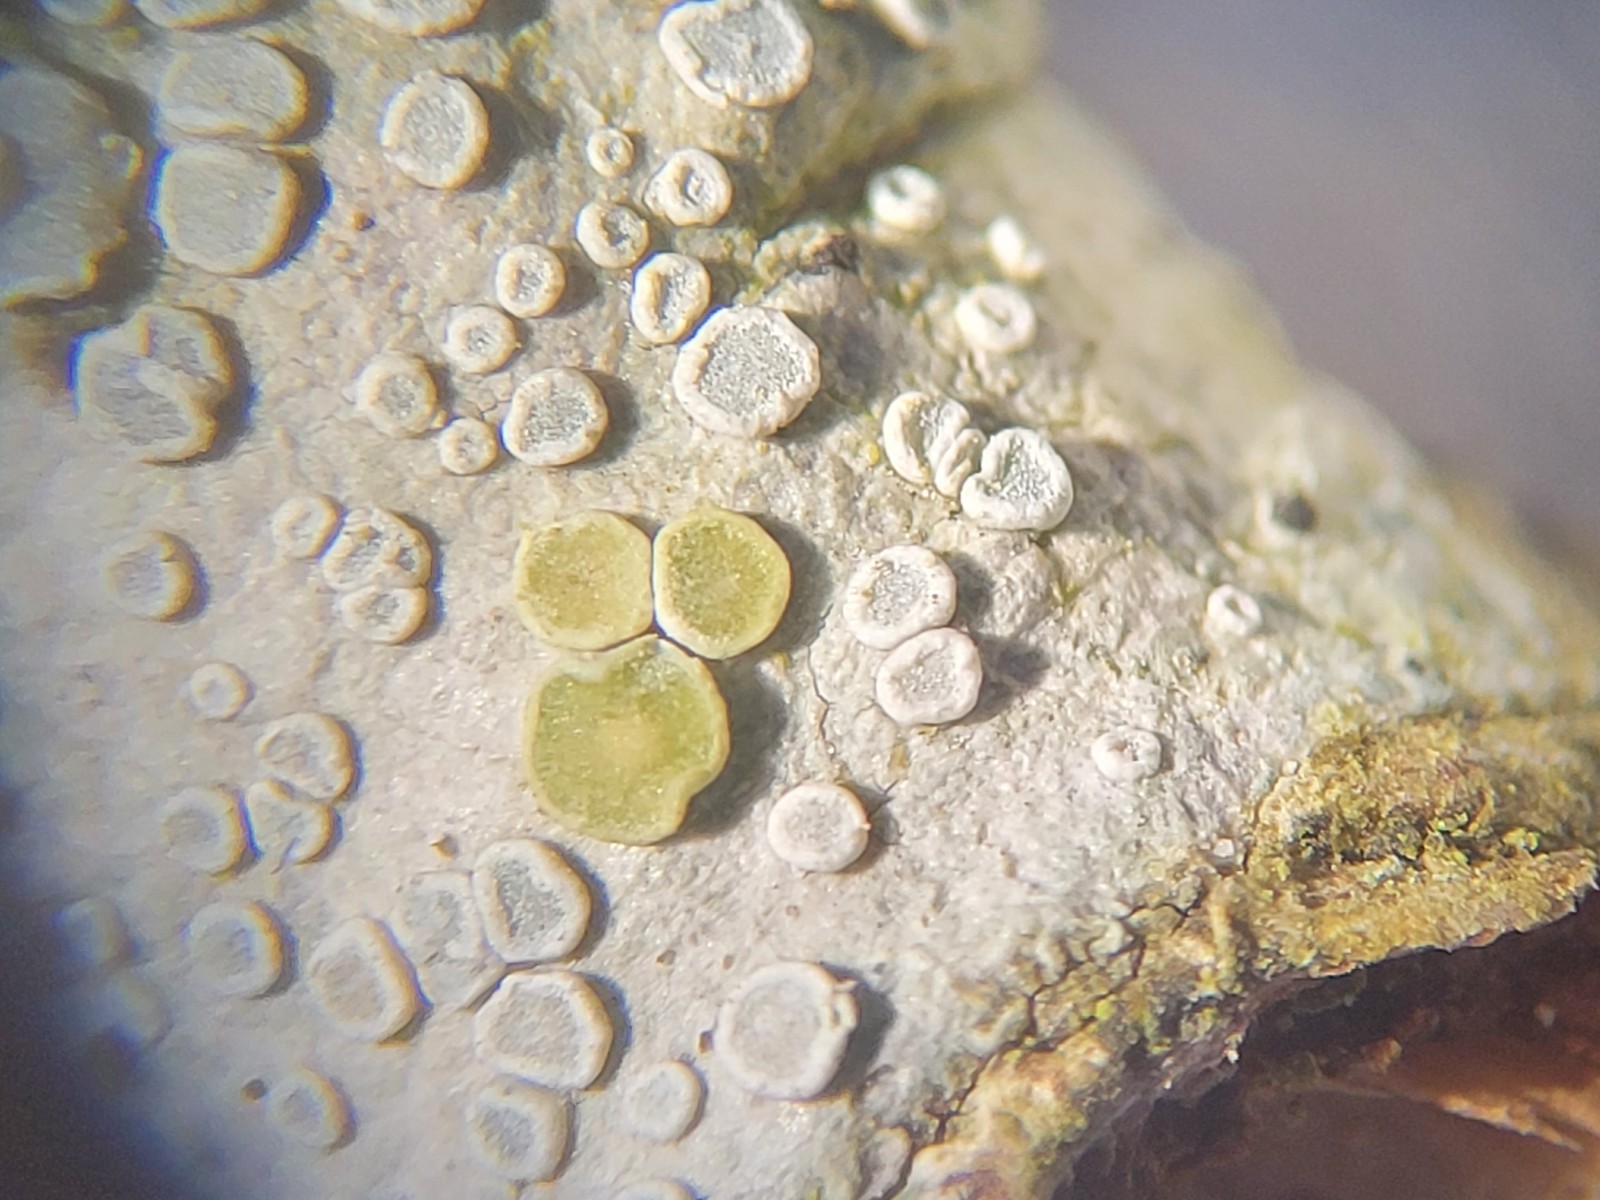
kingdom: Fungi
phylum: Ascomycota
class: Lecanoromycetes
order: Lecanorales
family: Lecanoraceae
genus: Glaucomaria
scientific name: Glaucomaria carpinea
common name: hviddugget kantskivelav
